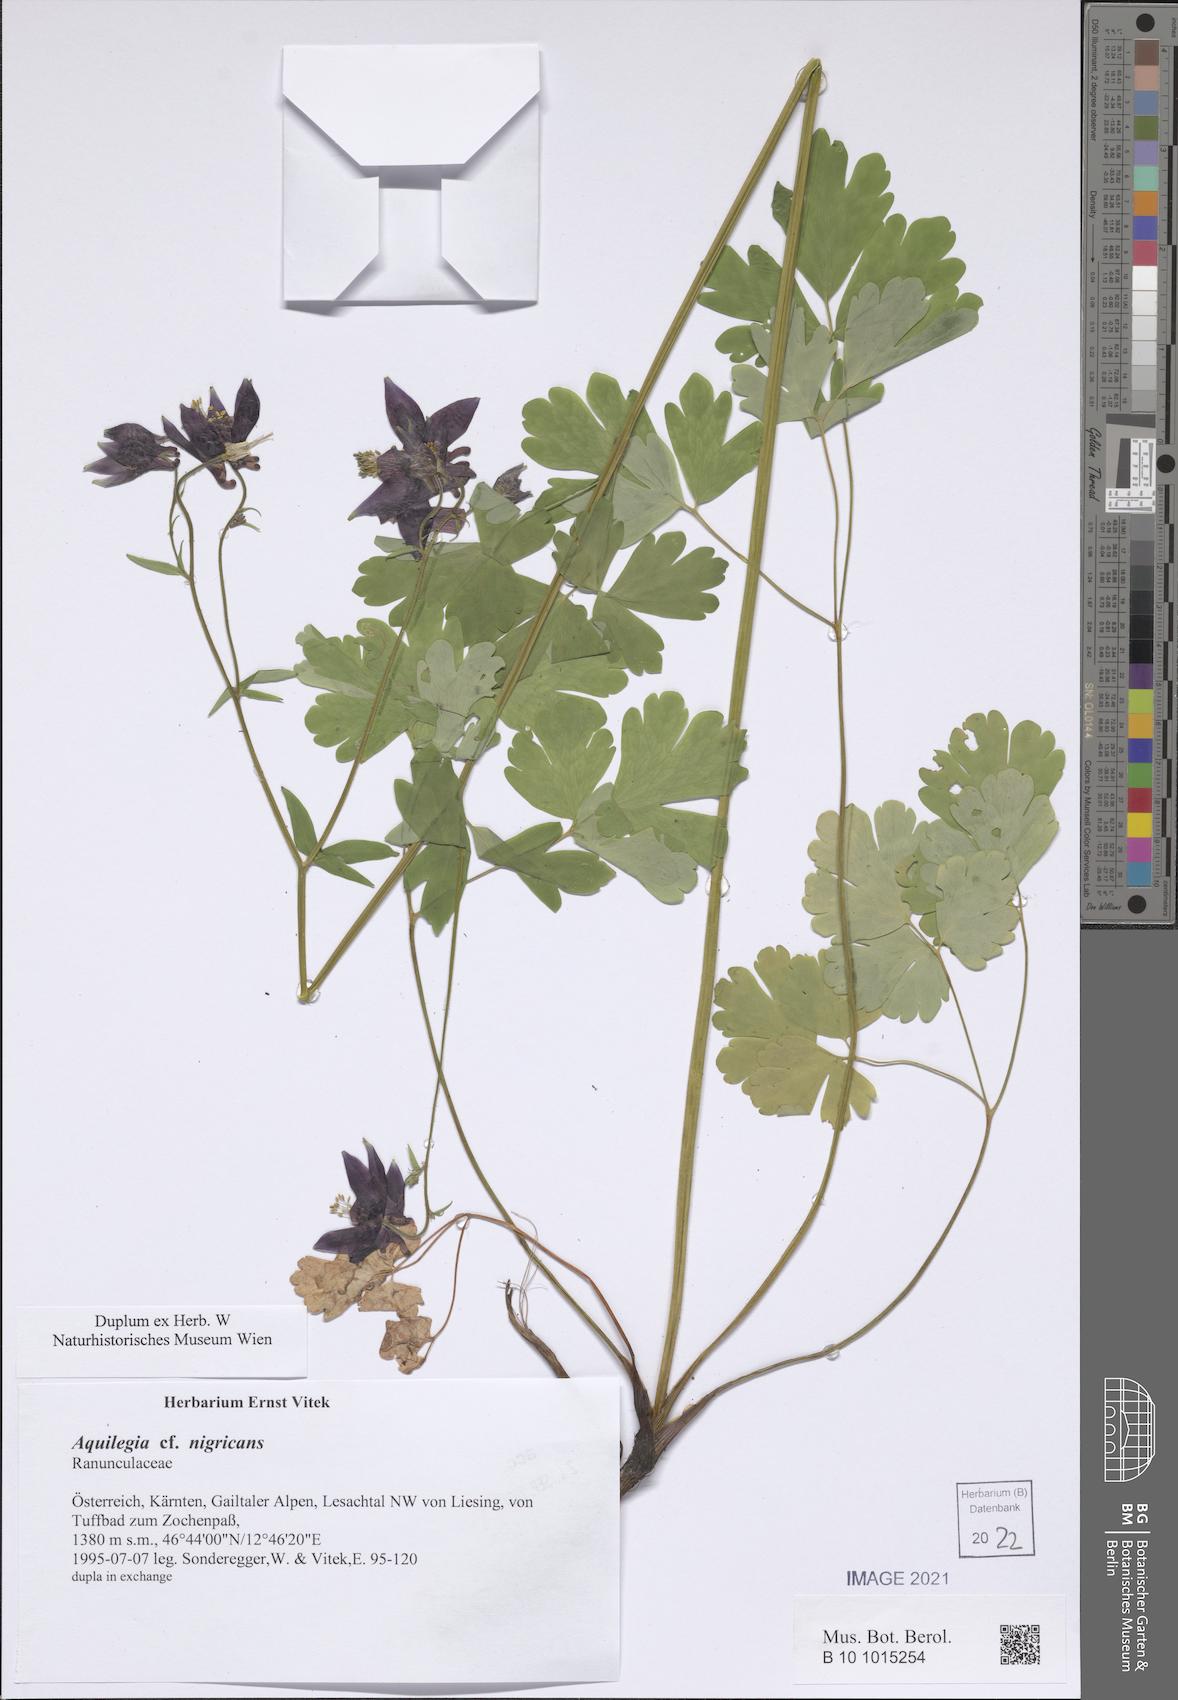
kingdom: Plantae
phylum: Tracheophyta
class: Magnoliopsida
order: Ranunculales
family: Ranunculaceae
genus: Aquilegia
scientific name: Aquilegia nigricans
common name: Bulgarian columbine
